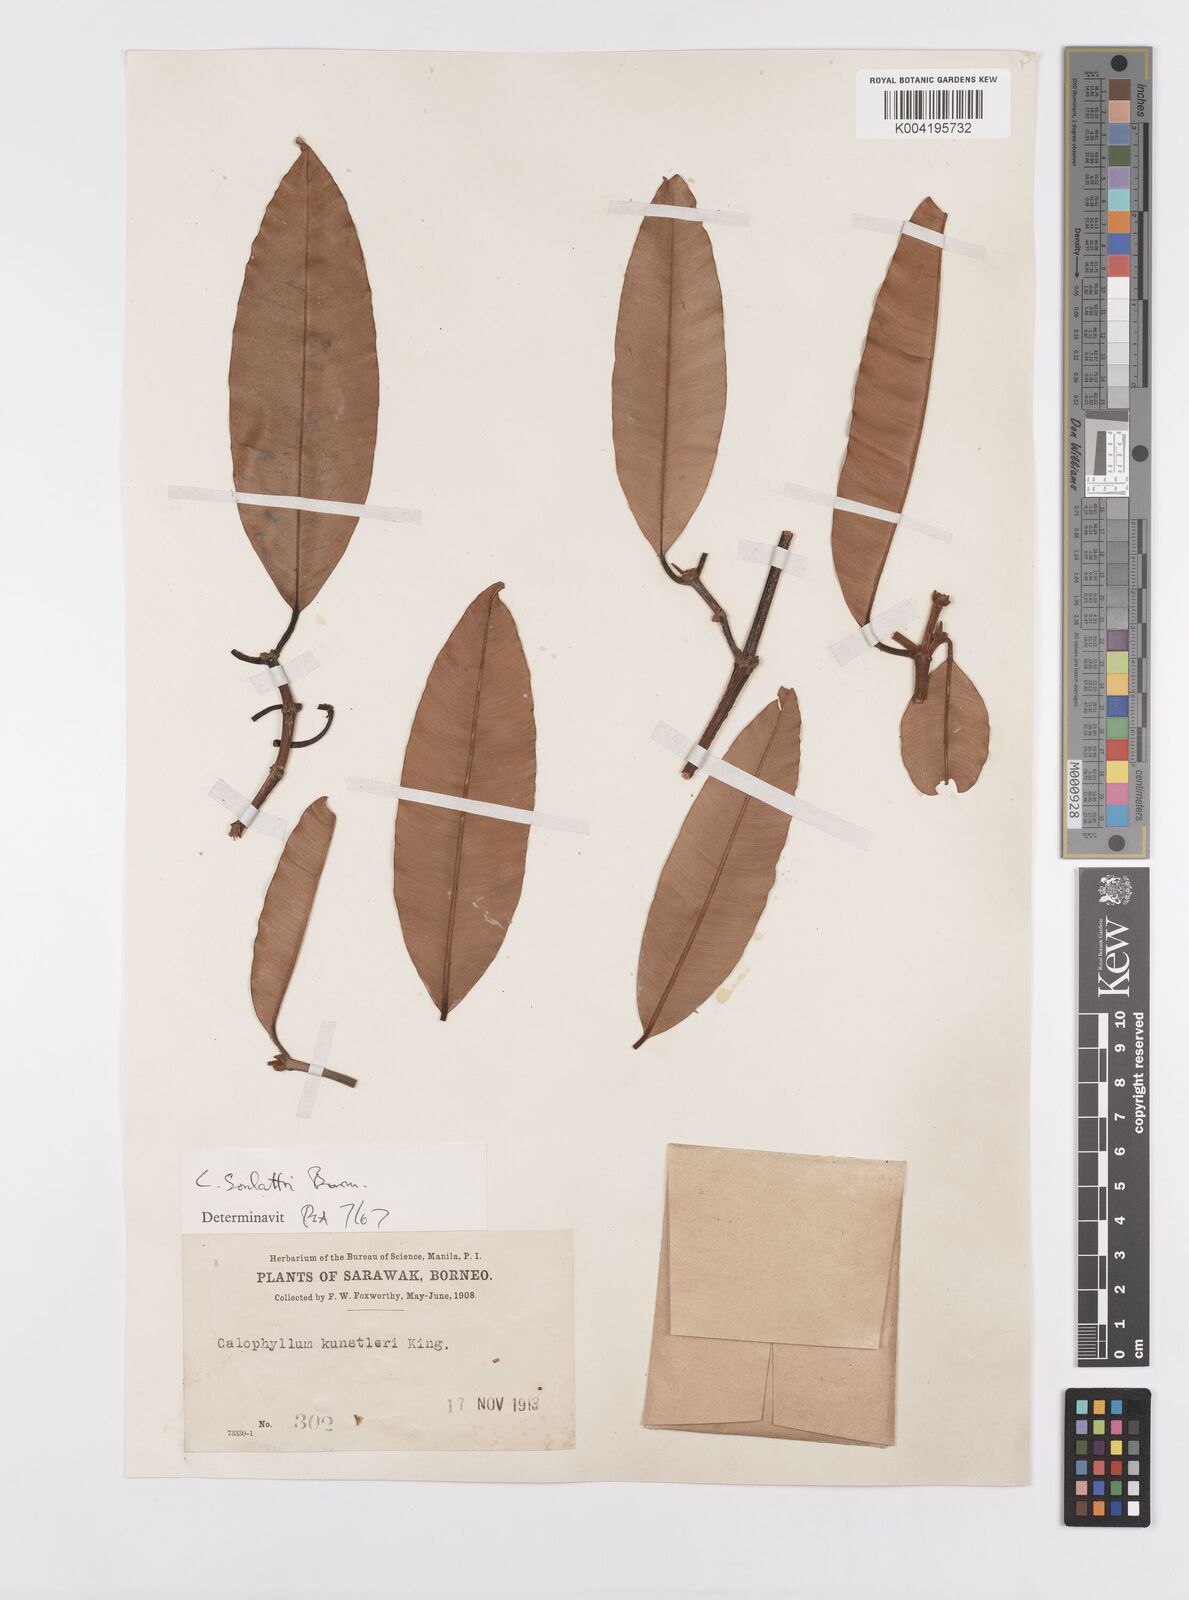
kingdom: Plantae
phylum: Tracheophyta
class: Magnoliopsida
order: Malpighiales
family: Calophyllaceae
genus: Calophyllum
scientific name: Calophyllum soulattri
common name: Bitangoor boonot
